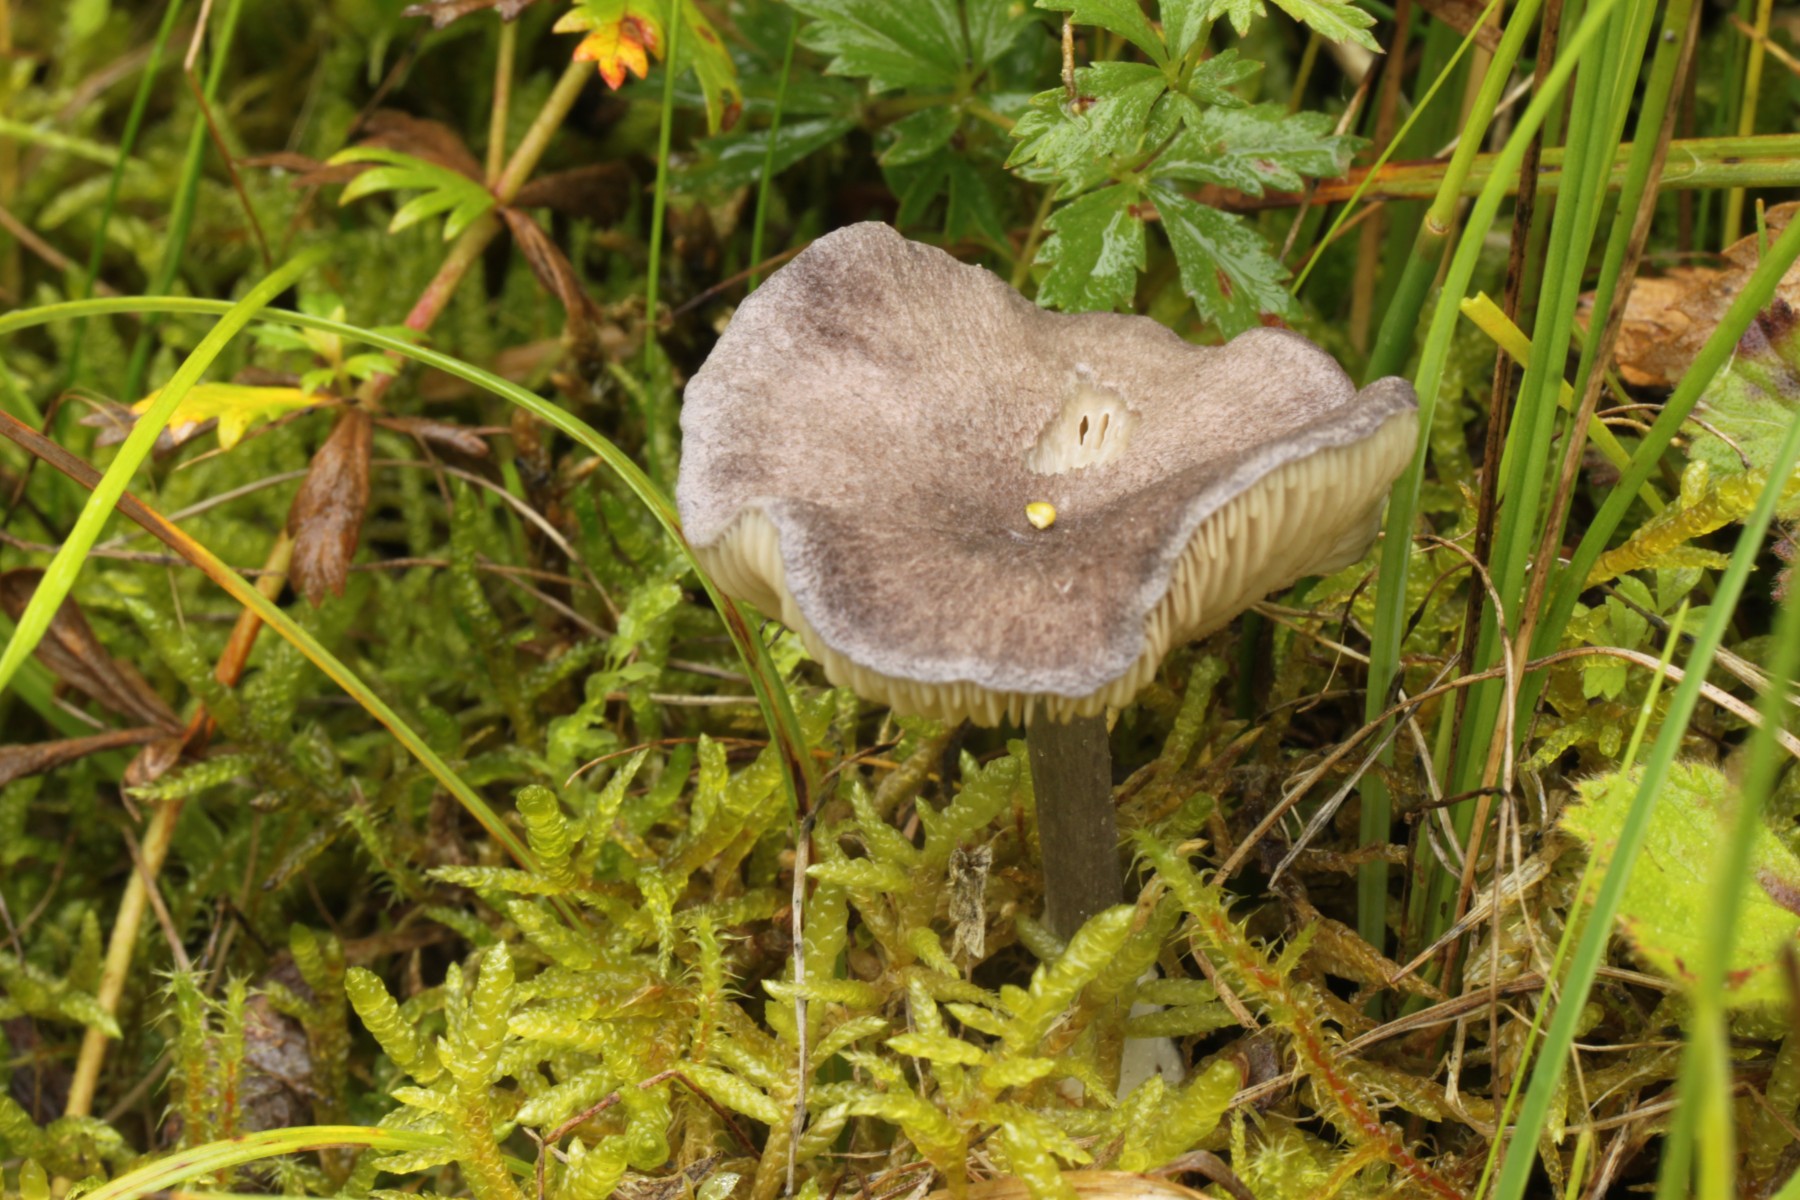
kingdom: Fungi
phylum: Basidiomycota
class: Agaricomycetes
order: Agaricales
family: Entolomataceae
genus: Entoloma
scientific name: Entoloma mougeotii
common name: violetgrå rødblad
